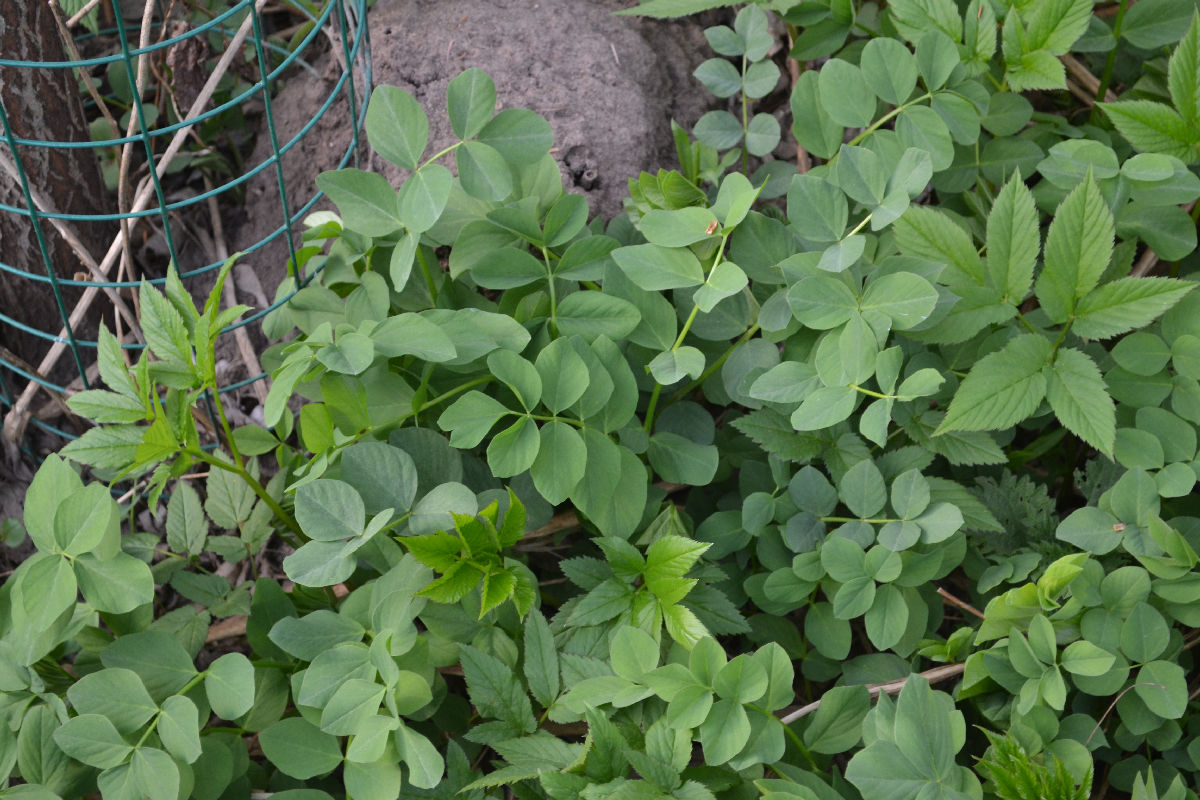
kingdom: Plantae
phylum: Tracheophyta
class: Magnoliopsida
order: Fabales
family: Fabaceae
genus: Galega
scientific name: Galega orientalis
